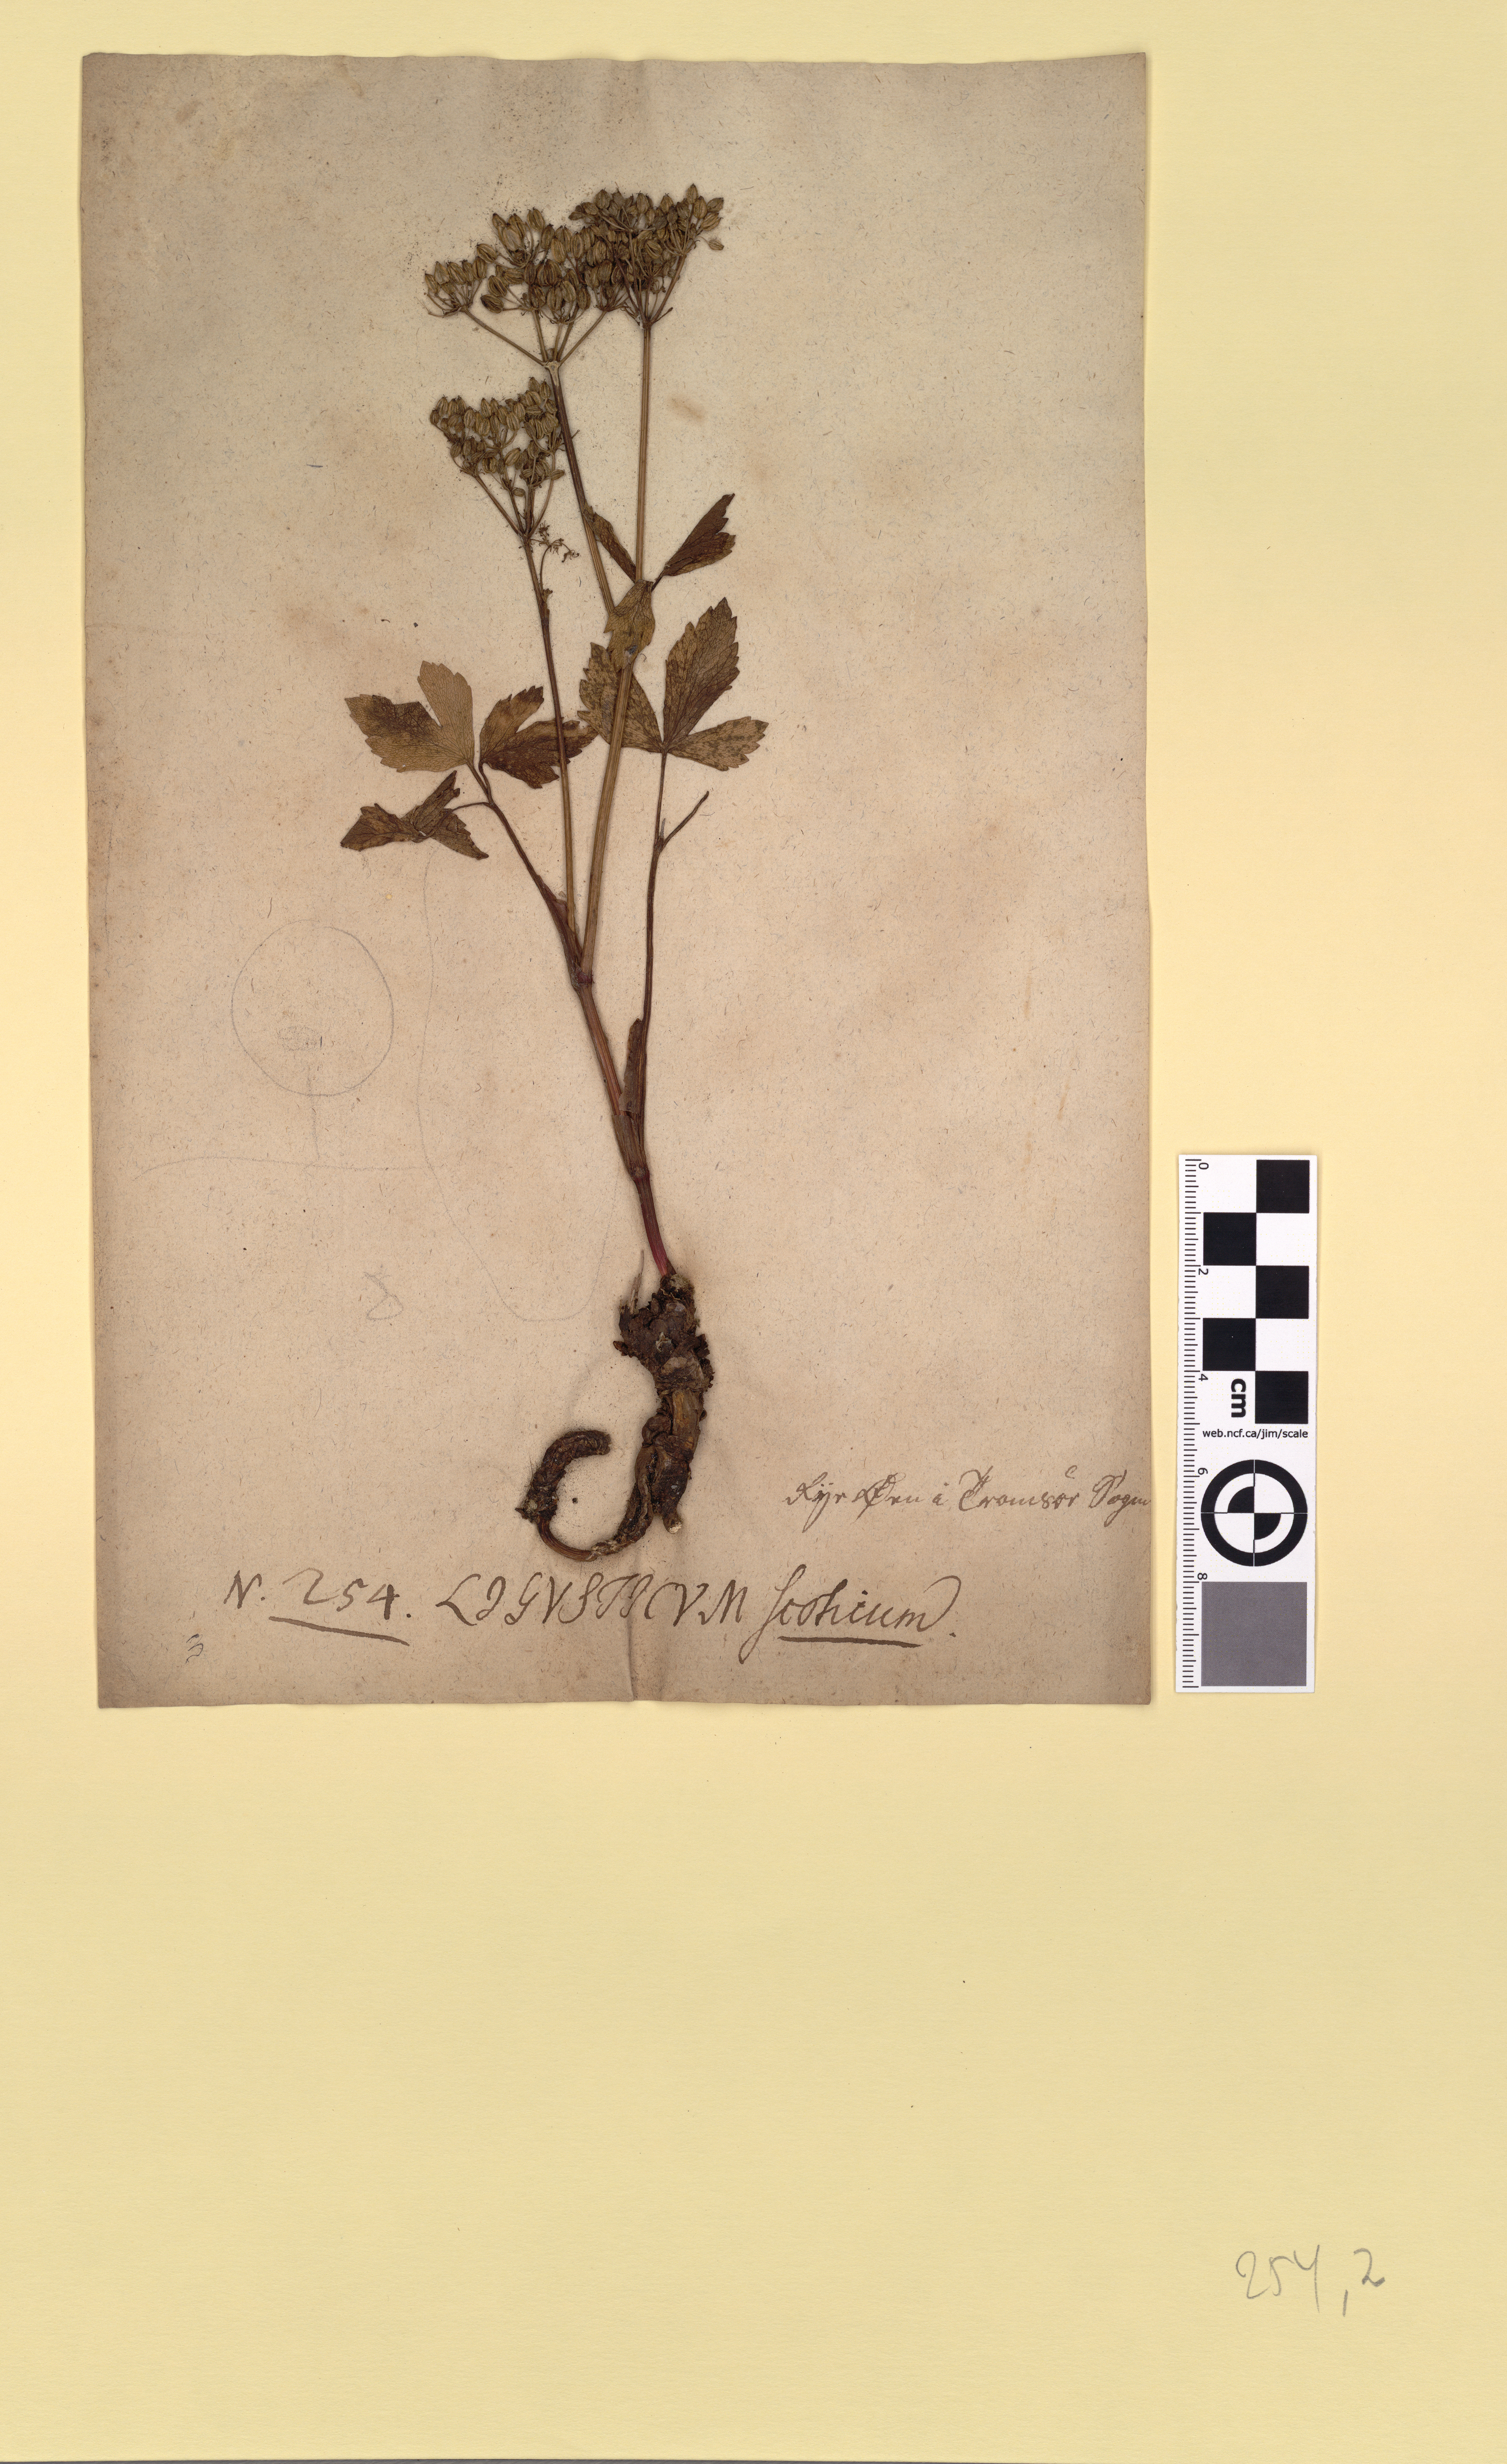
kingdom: Plantae
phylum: Tracheophyta
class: Magnoliopsida
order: Apiales
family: Apiaceae
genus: Ligusticum
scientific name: Ligusticum scothicum
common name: Beach lovage
